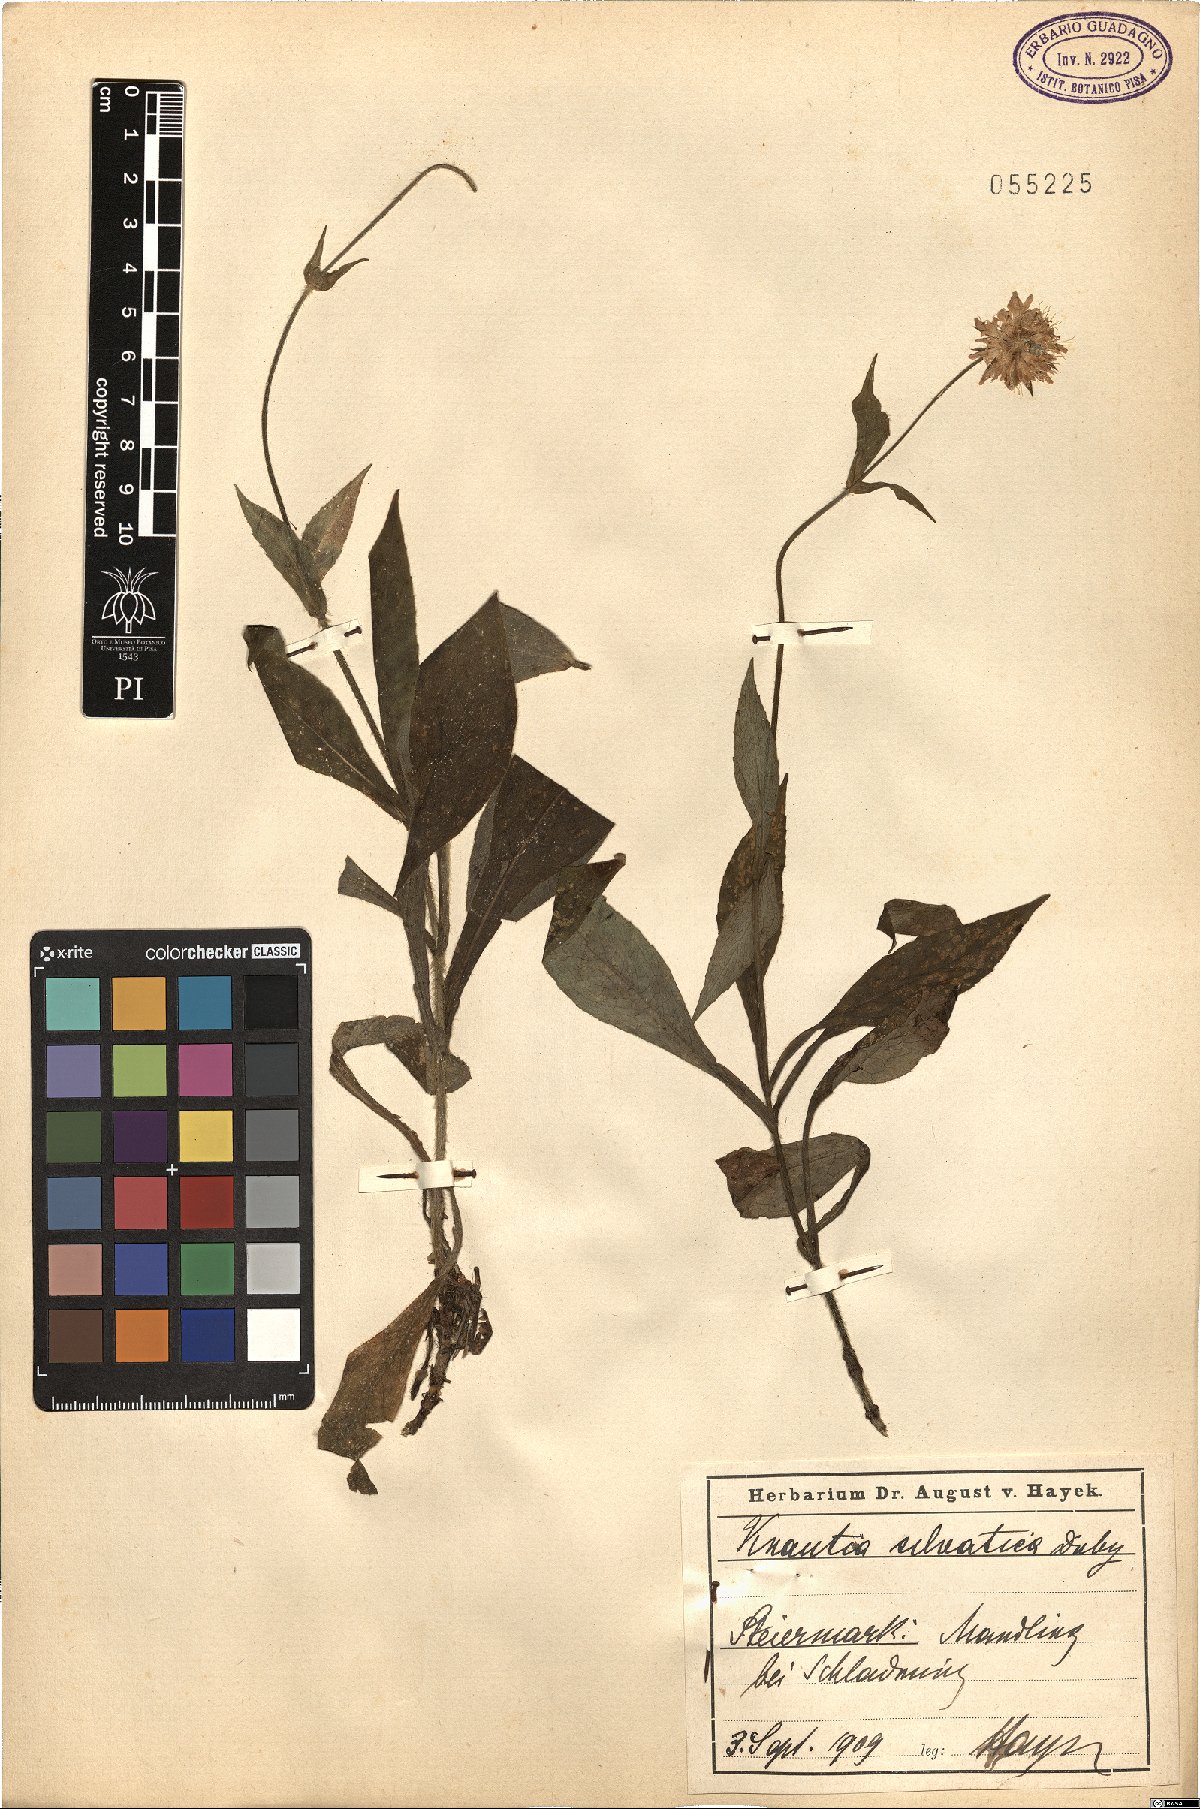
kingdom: Plantae
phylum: Tracheophyta
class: Magnoliopsida
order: Dipsacales
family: Caprifoliaceae
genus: Knautia
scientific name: Knautia drymeia
